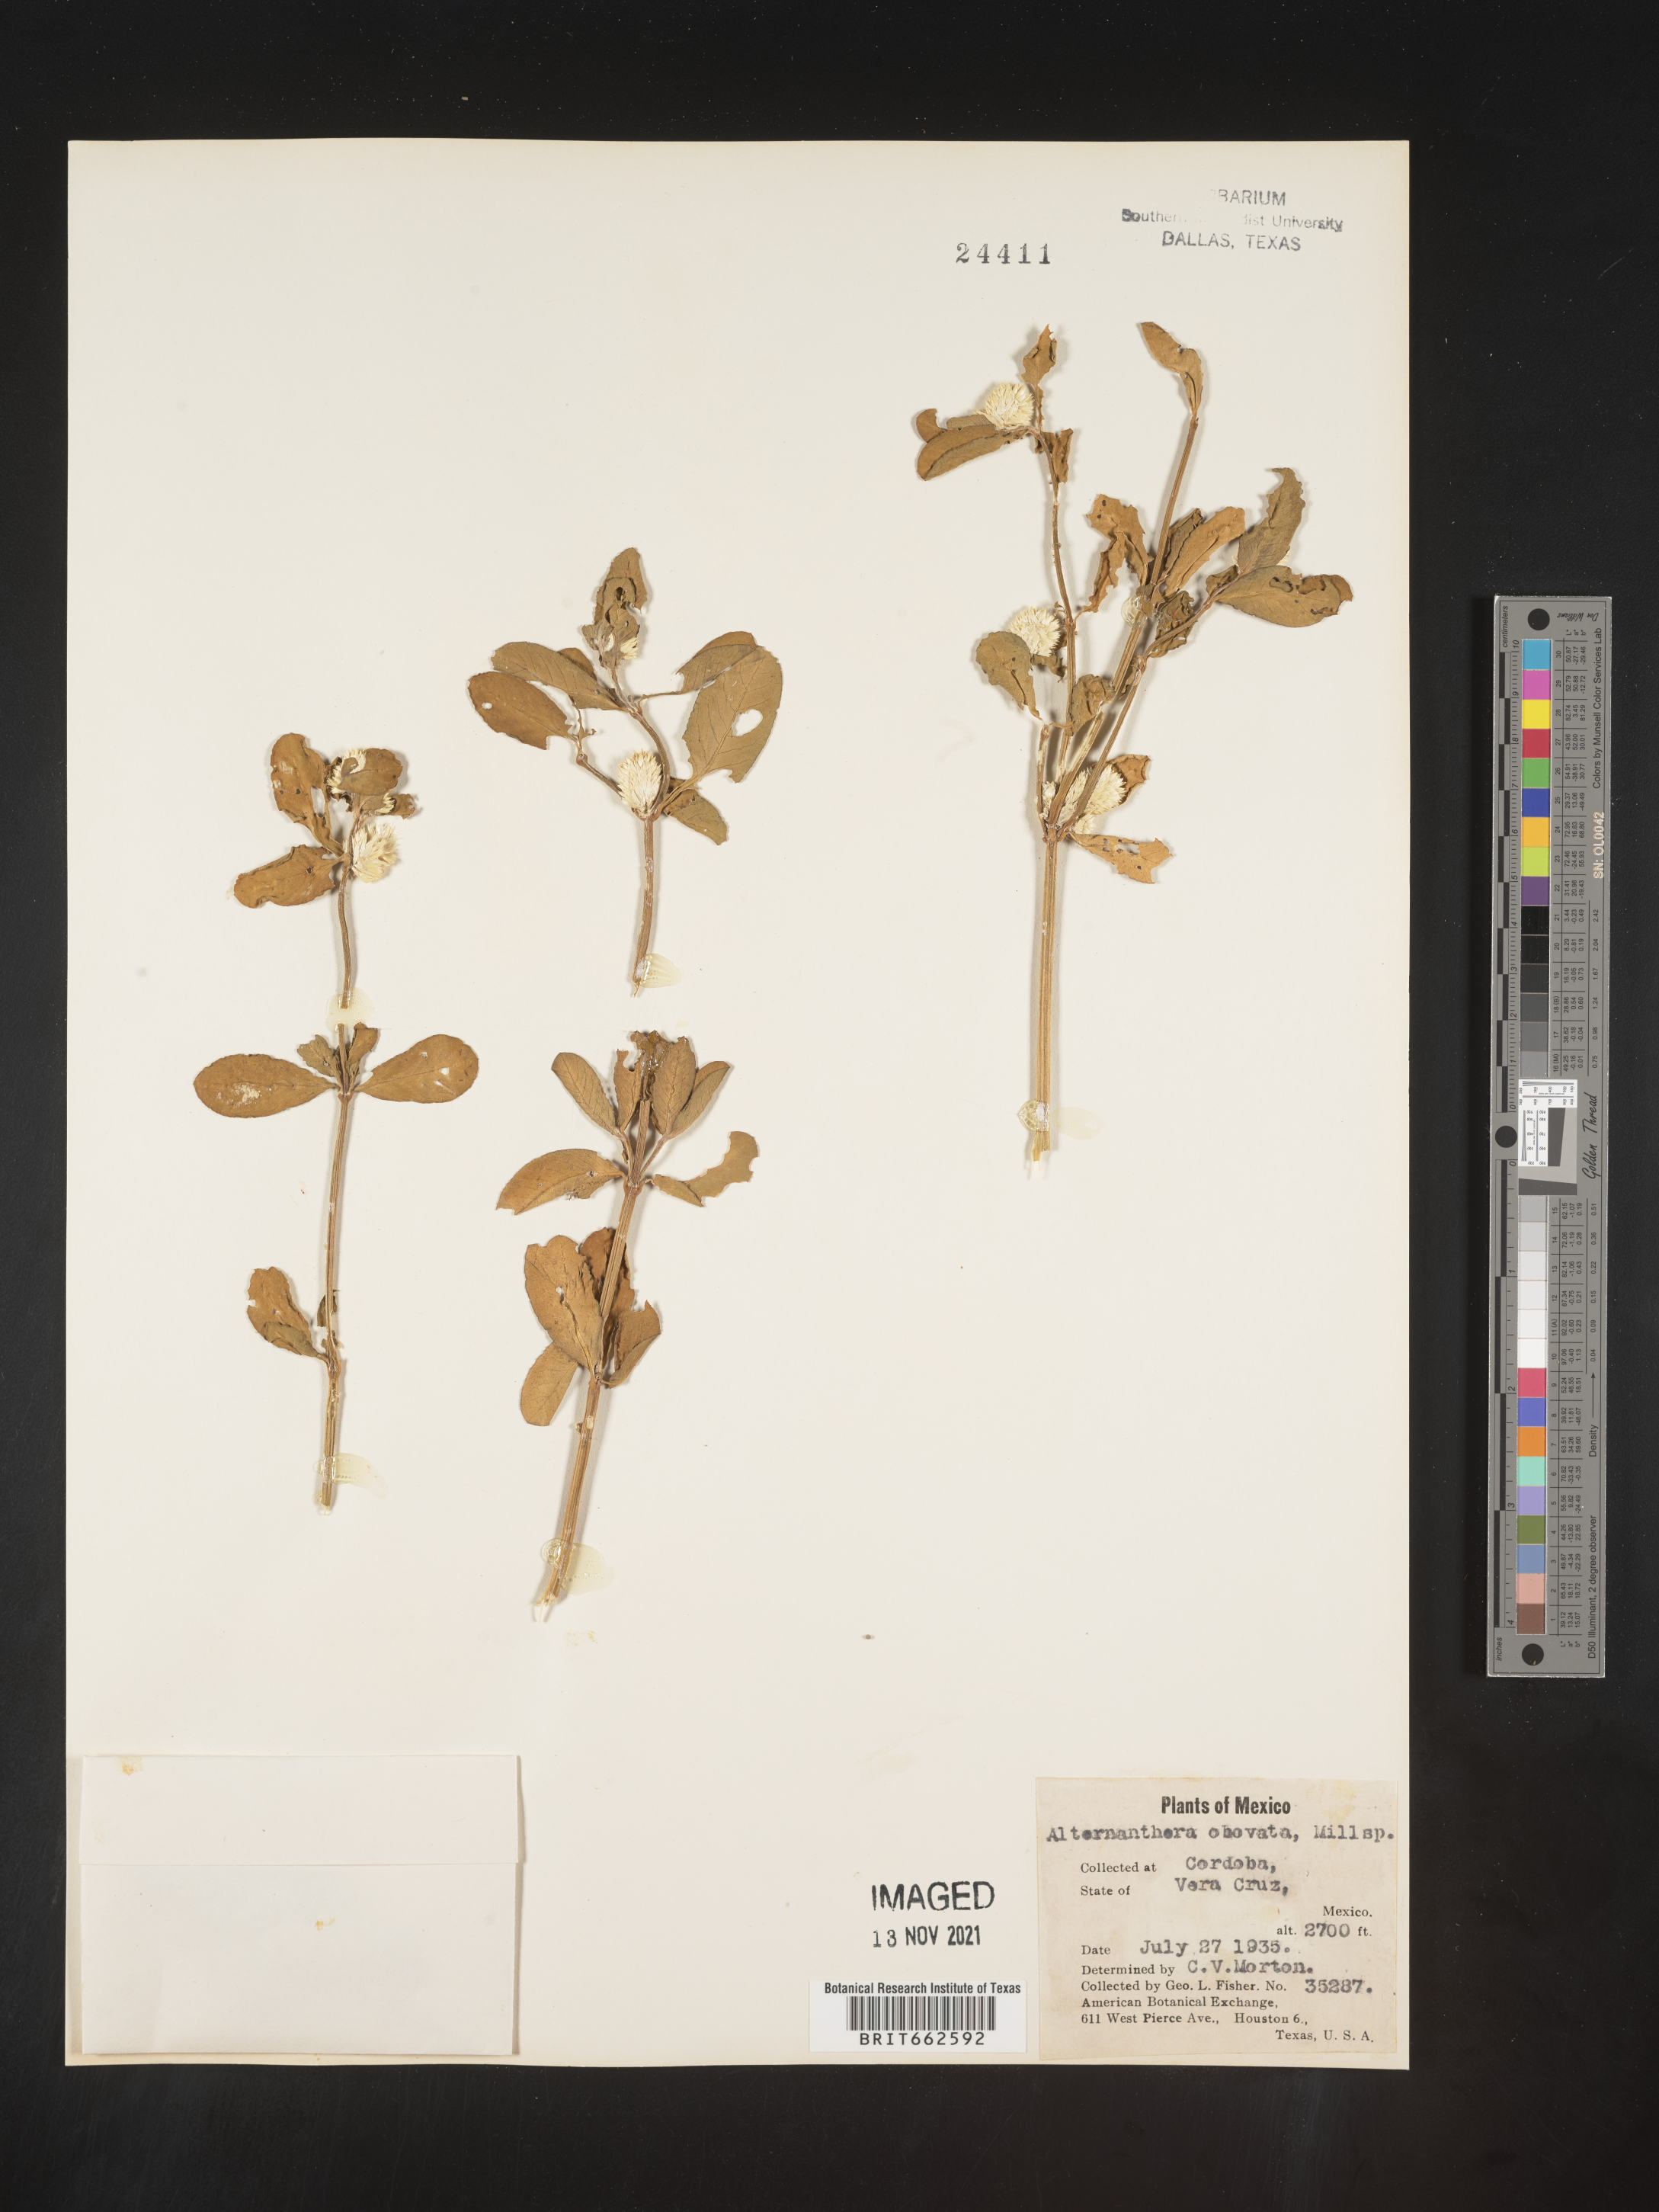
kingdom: Plantae
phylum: Tracheophyta
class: Magnoliopsida
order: Caryophyllales
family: Amaranthaceae
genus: Alternanthera
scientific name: Alternanthera
